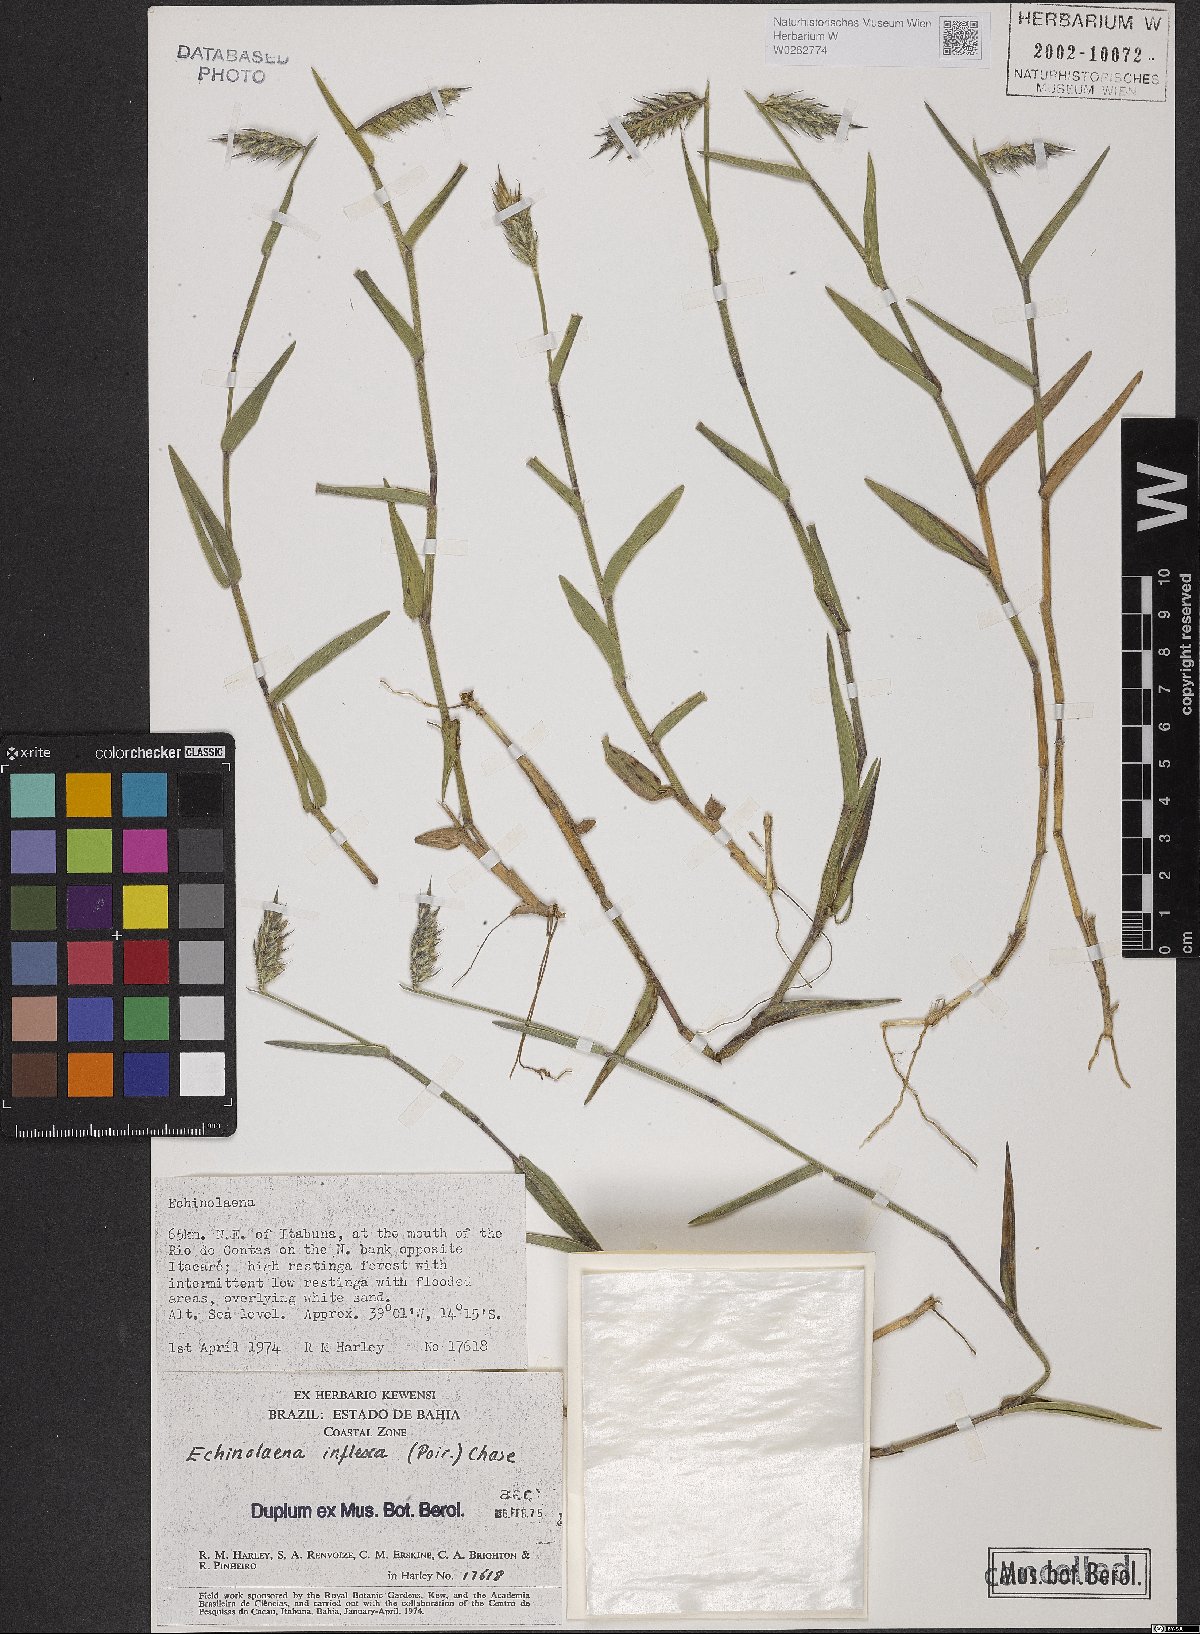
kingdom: Plantae
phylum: Tracheophyta
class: Liliopsida
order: Poales
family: Poaceae
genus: Echinolaena
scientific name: Echinolaena inflexa
